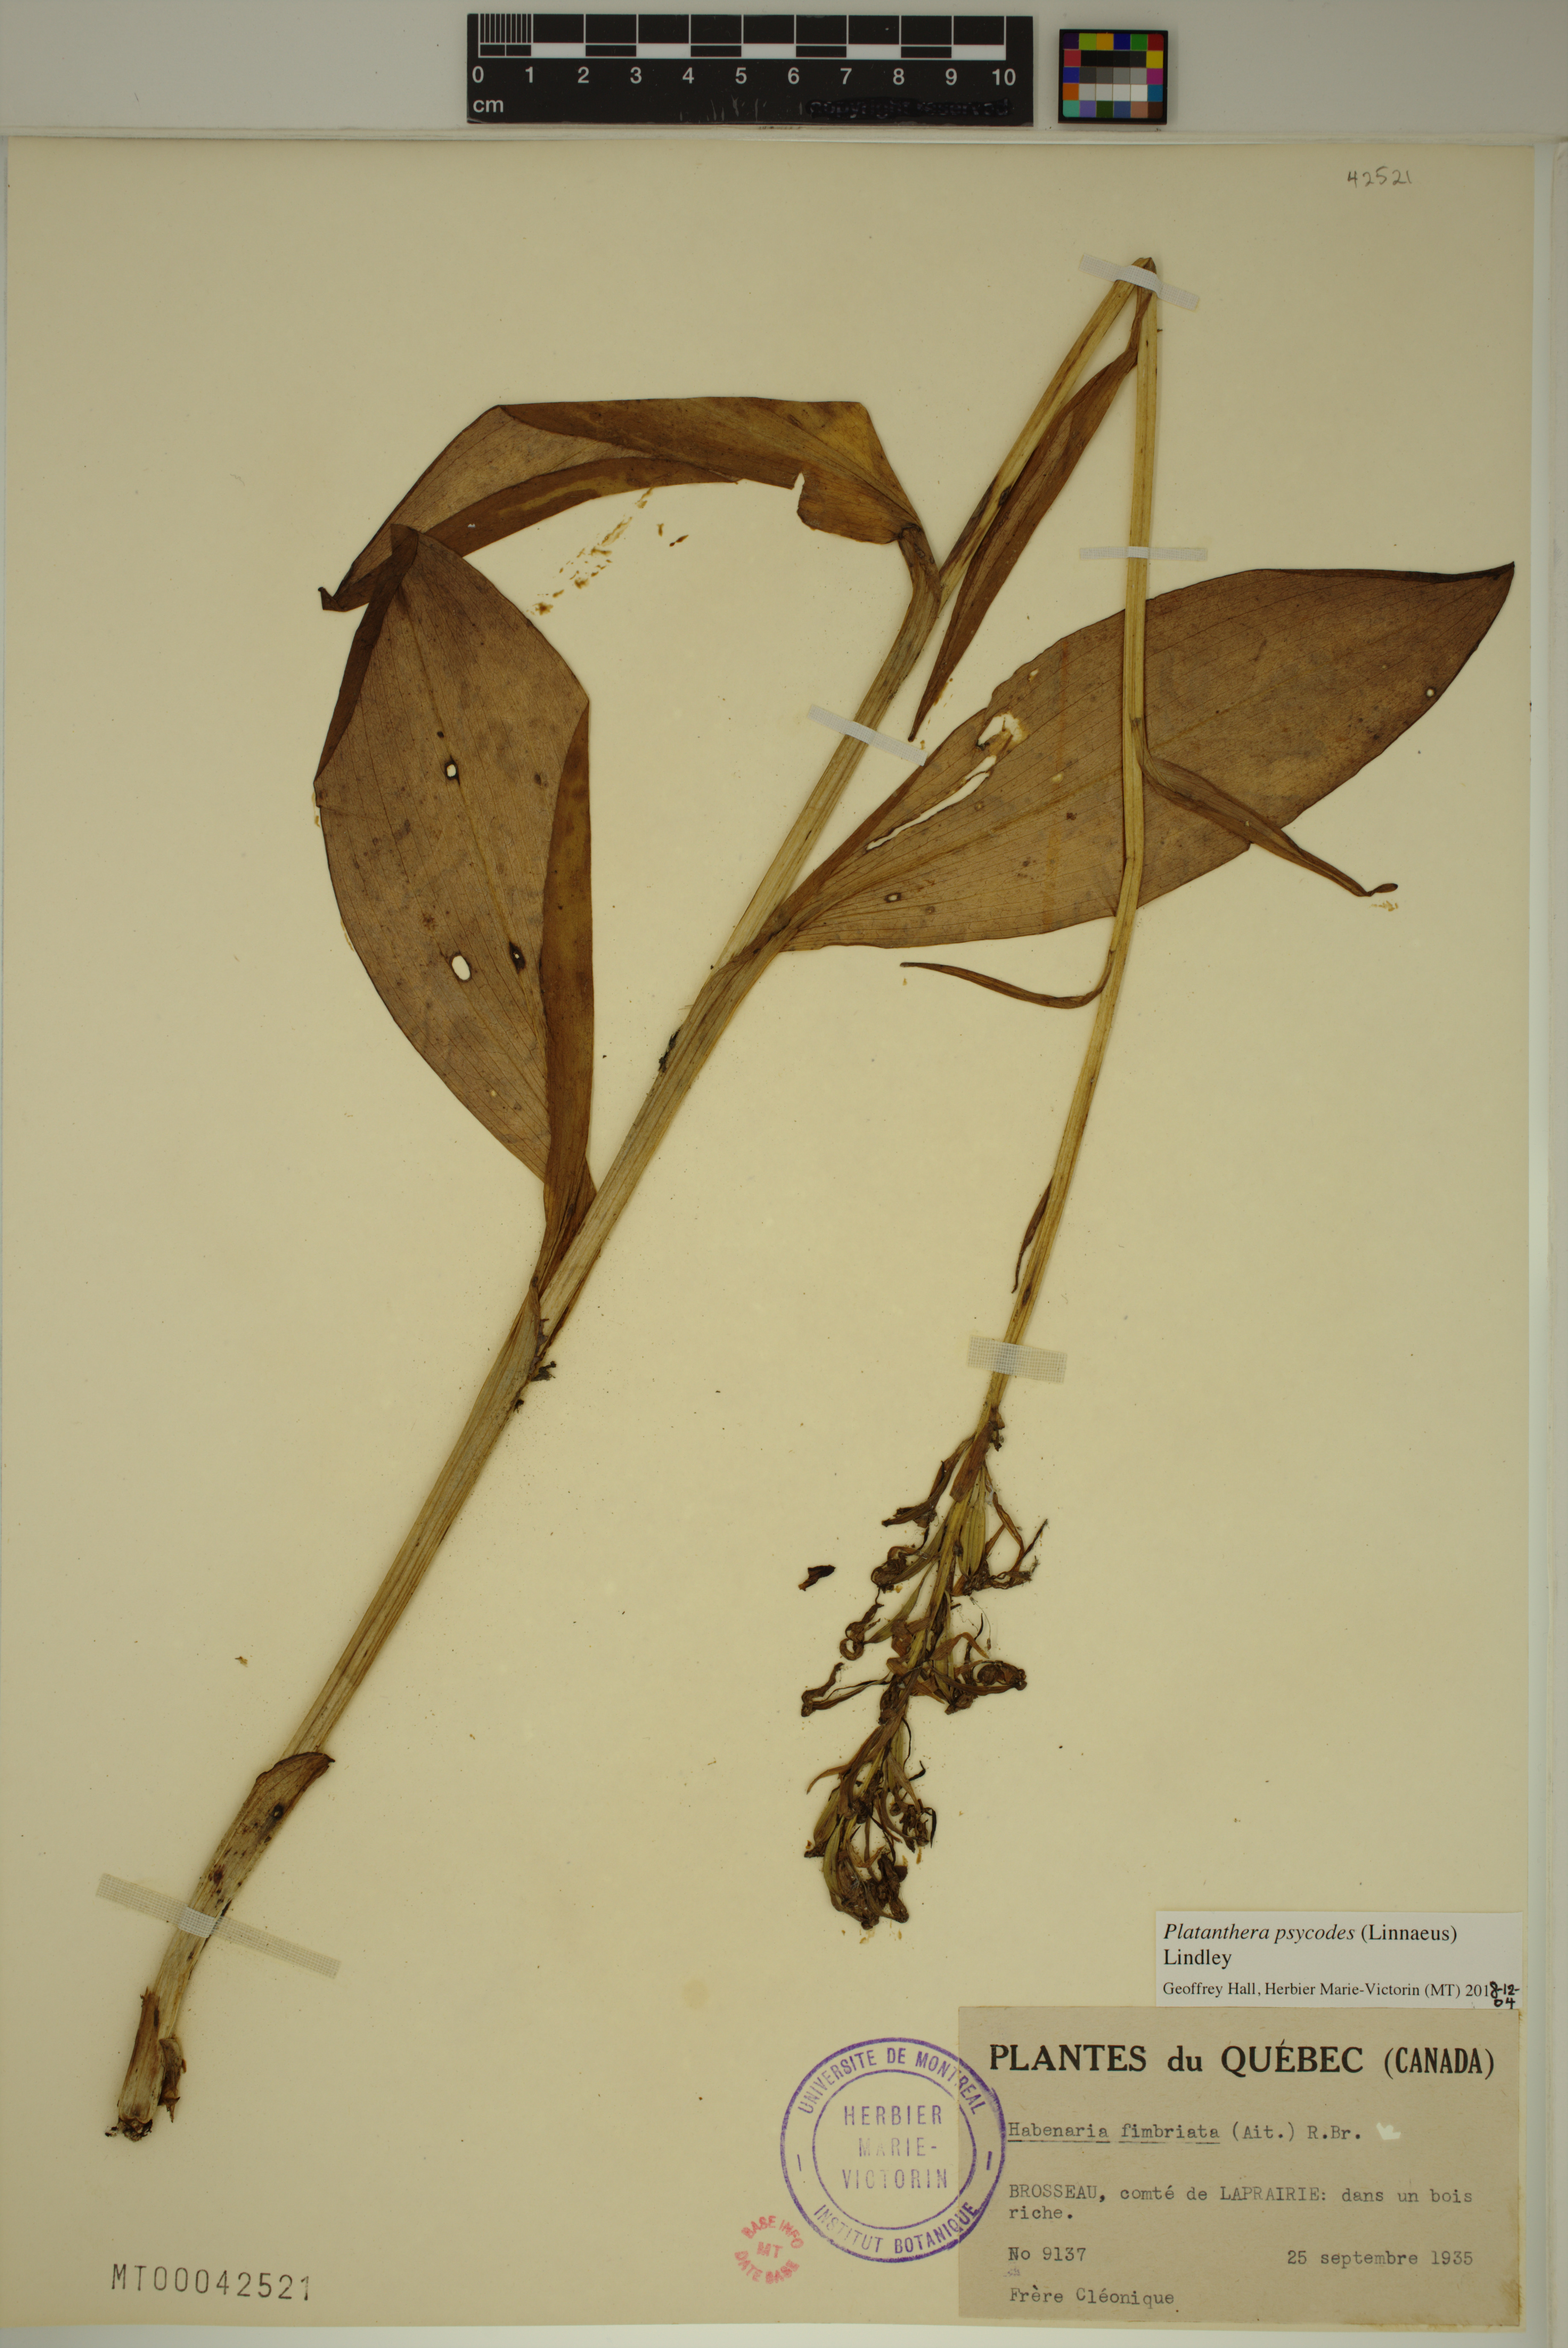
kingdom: Plantae
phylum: Tracheophyta
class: Liliopsida
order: Asparagales
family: Orchidaceae
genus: Platanthera
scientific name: Platanthera psycodes
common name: Lesser purple fringed orchid
